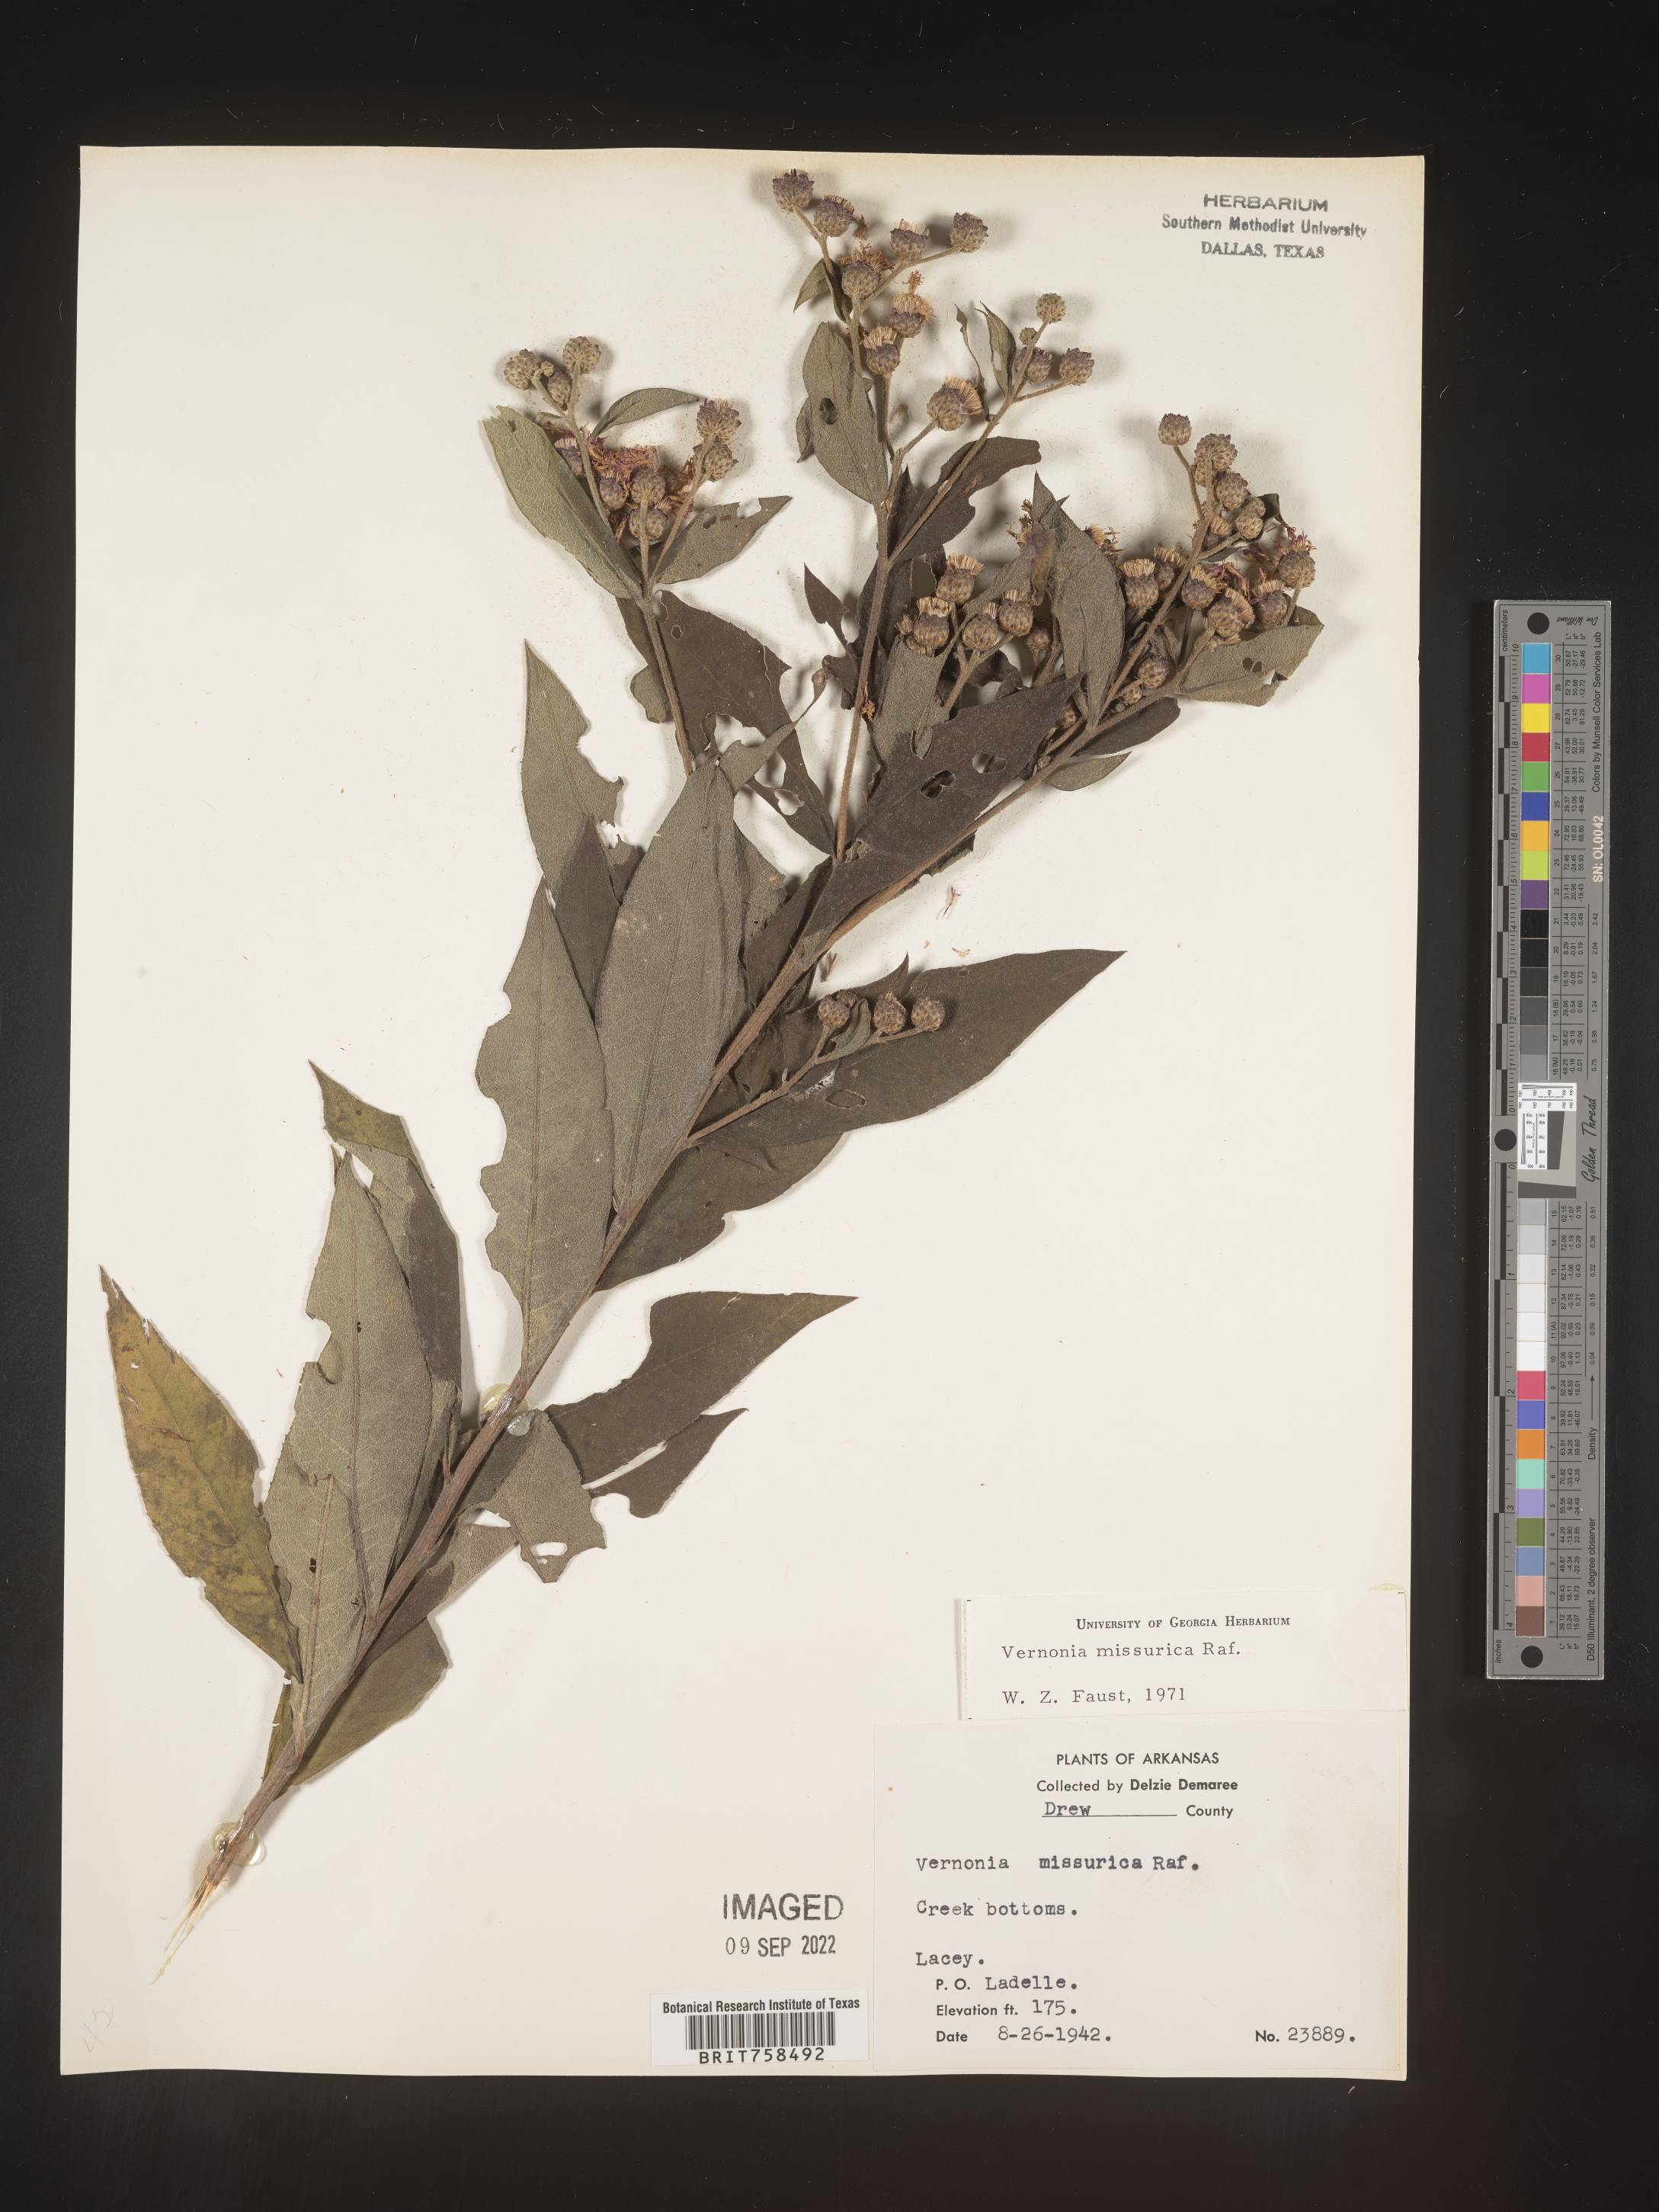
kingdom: Plantae
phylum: Tracheophyta
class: Magnoliopsida
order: Asterales
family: Asteraceae
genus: Vernonia
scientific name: Vernonia missurica
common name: Missouri ironweed
